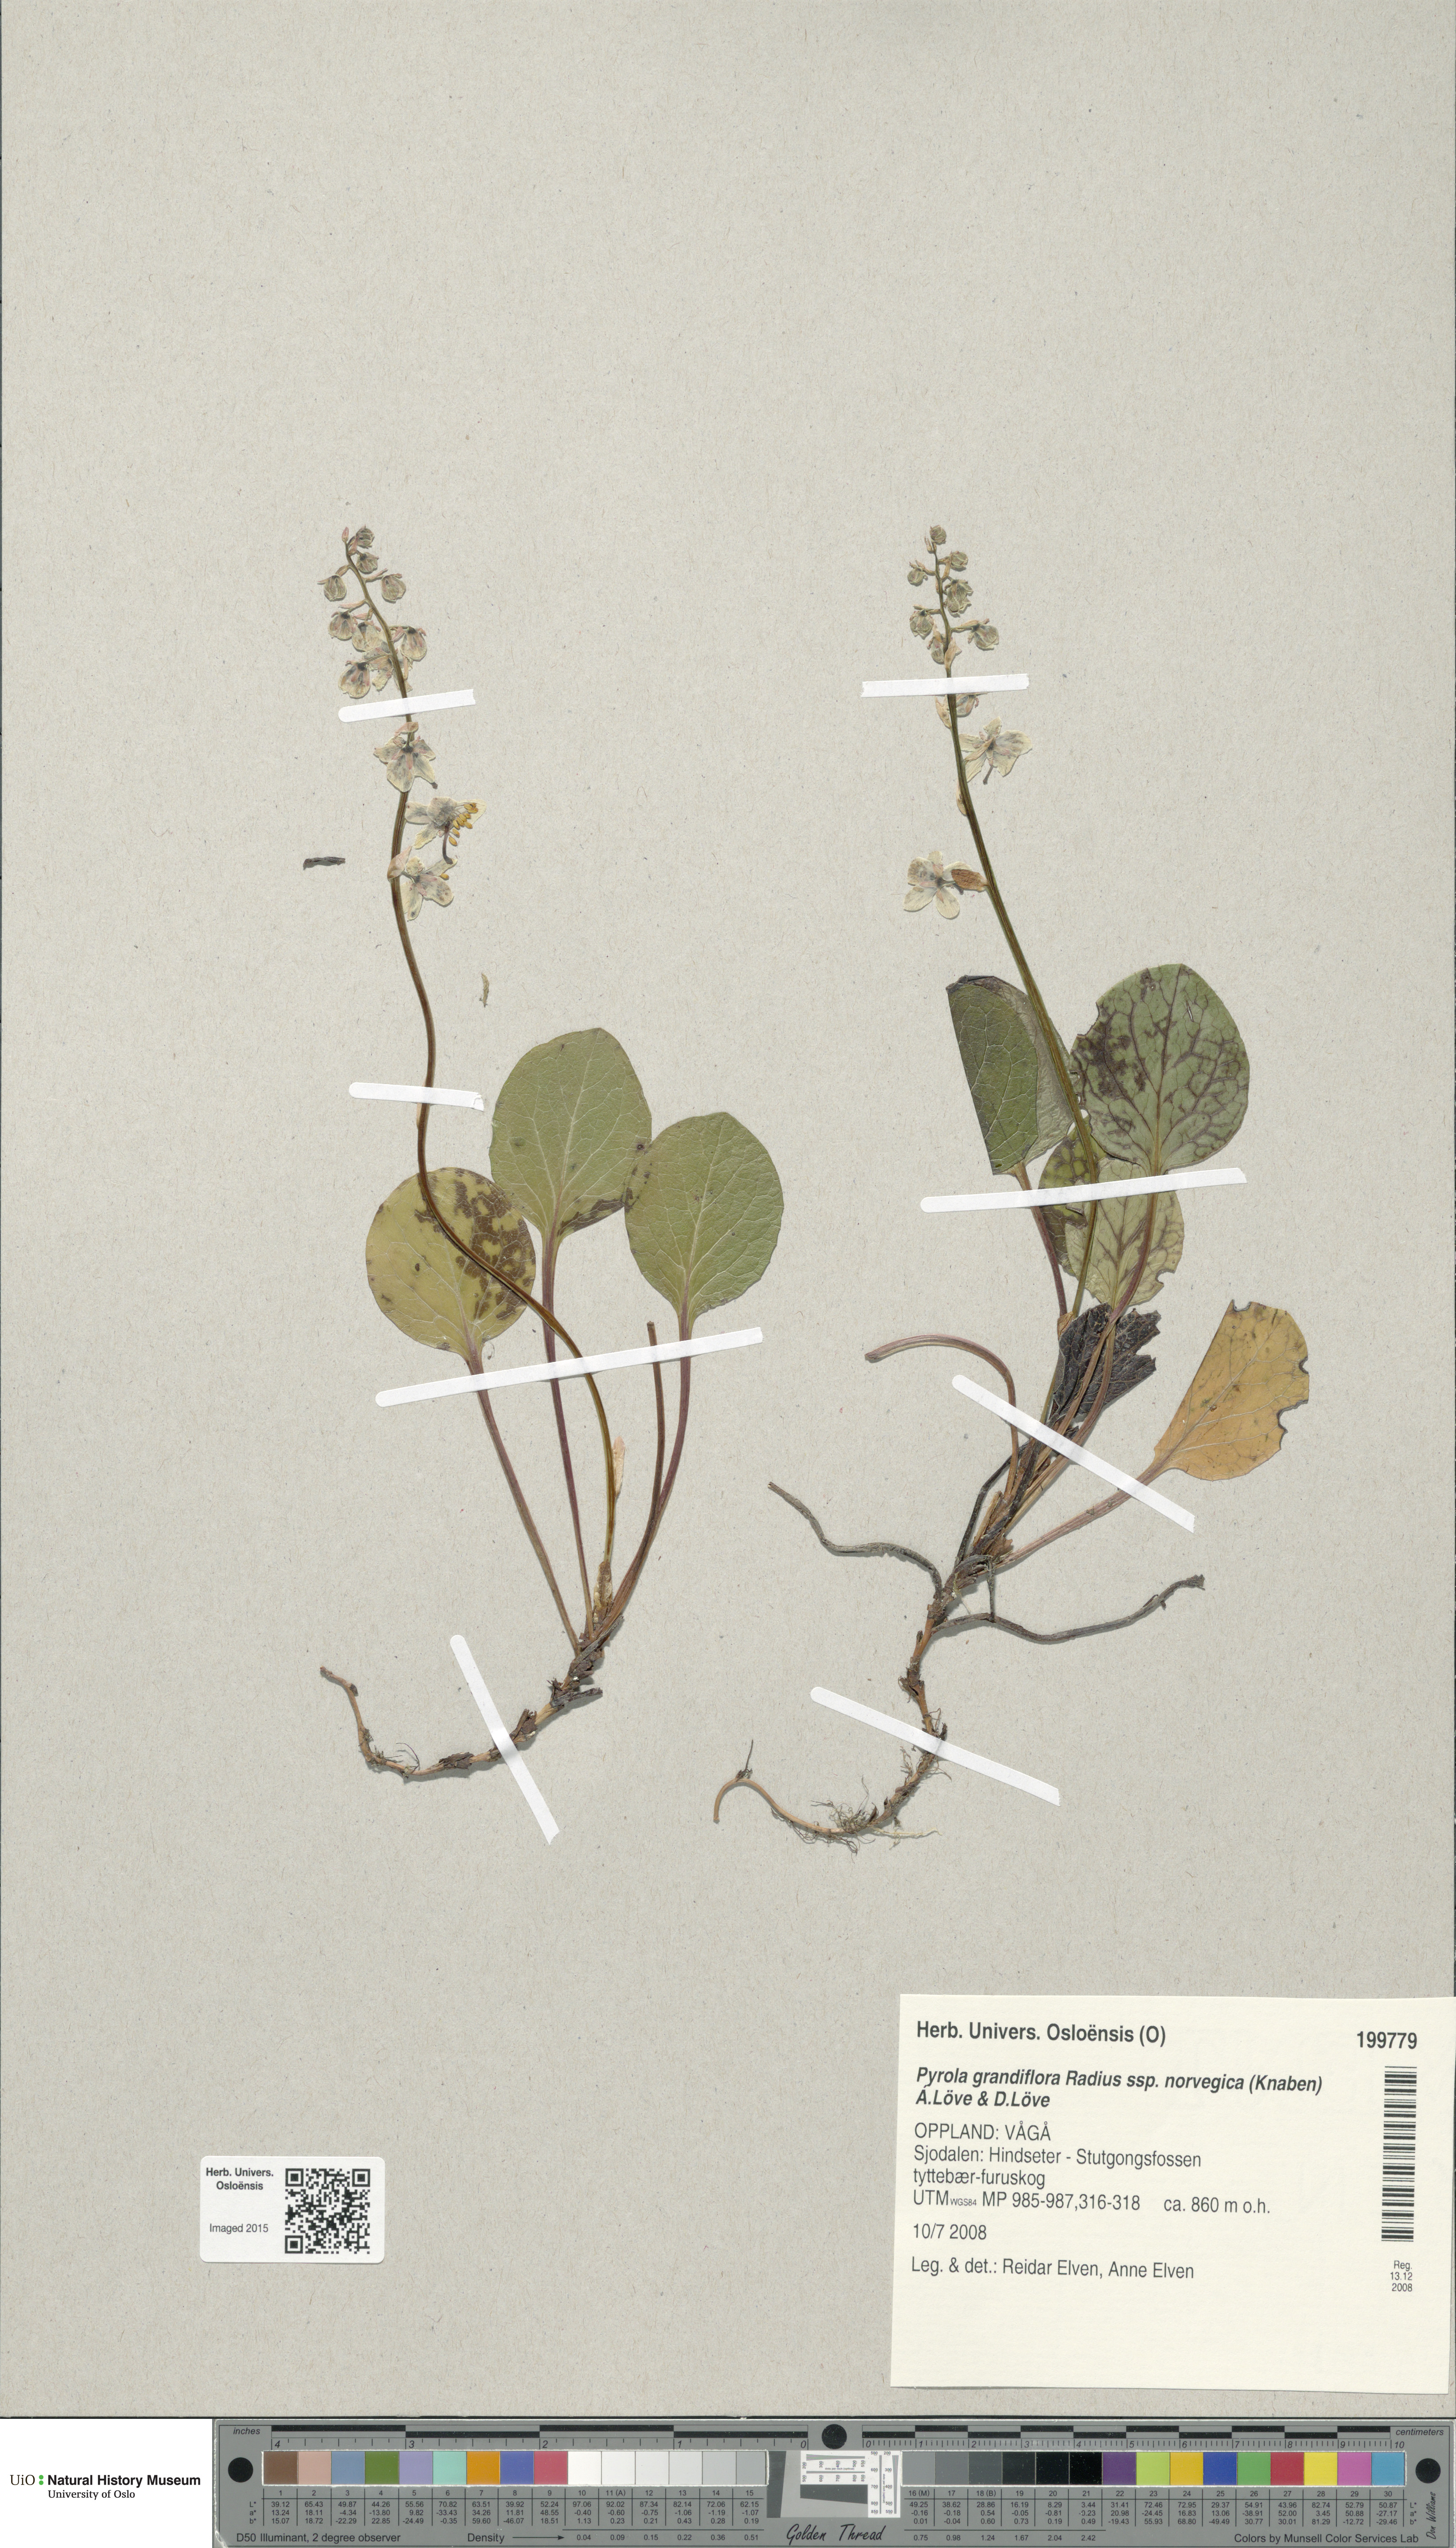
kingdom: Plantae
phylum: Tracheophyta
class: Magnoliopsida
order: Ericales
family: Ericaceae
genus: Pyrola
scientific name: Pyrola rotundifolia
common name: Round-leaved wintergreen
